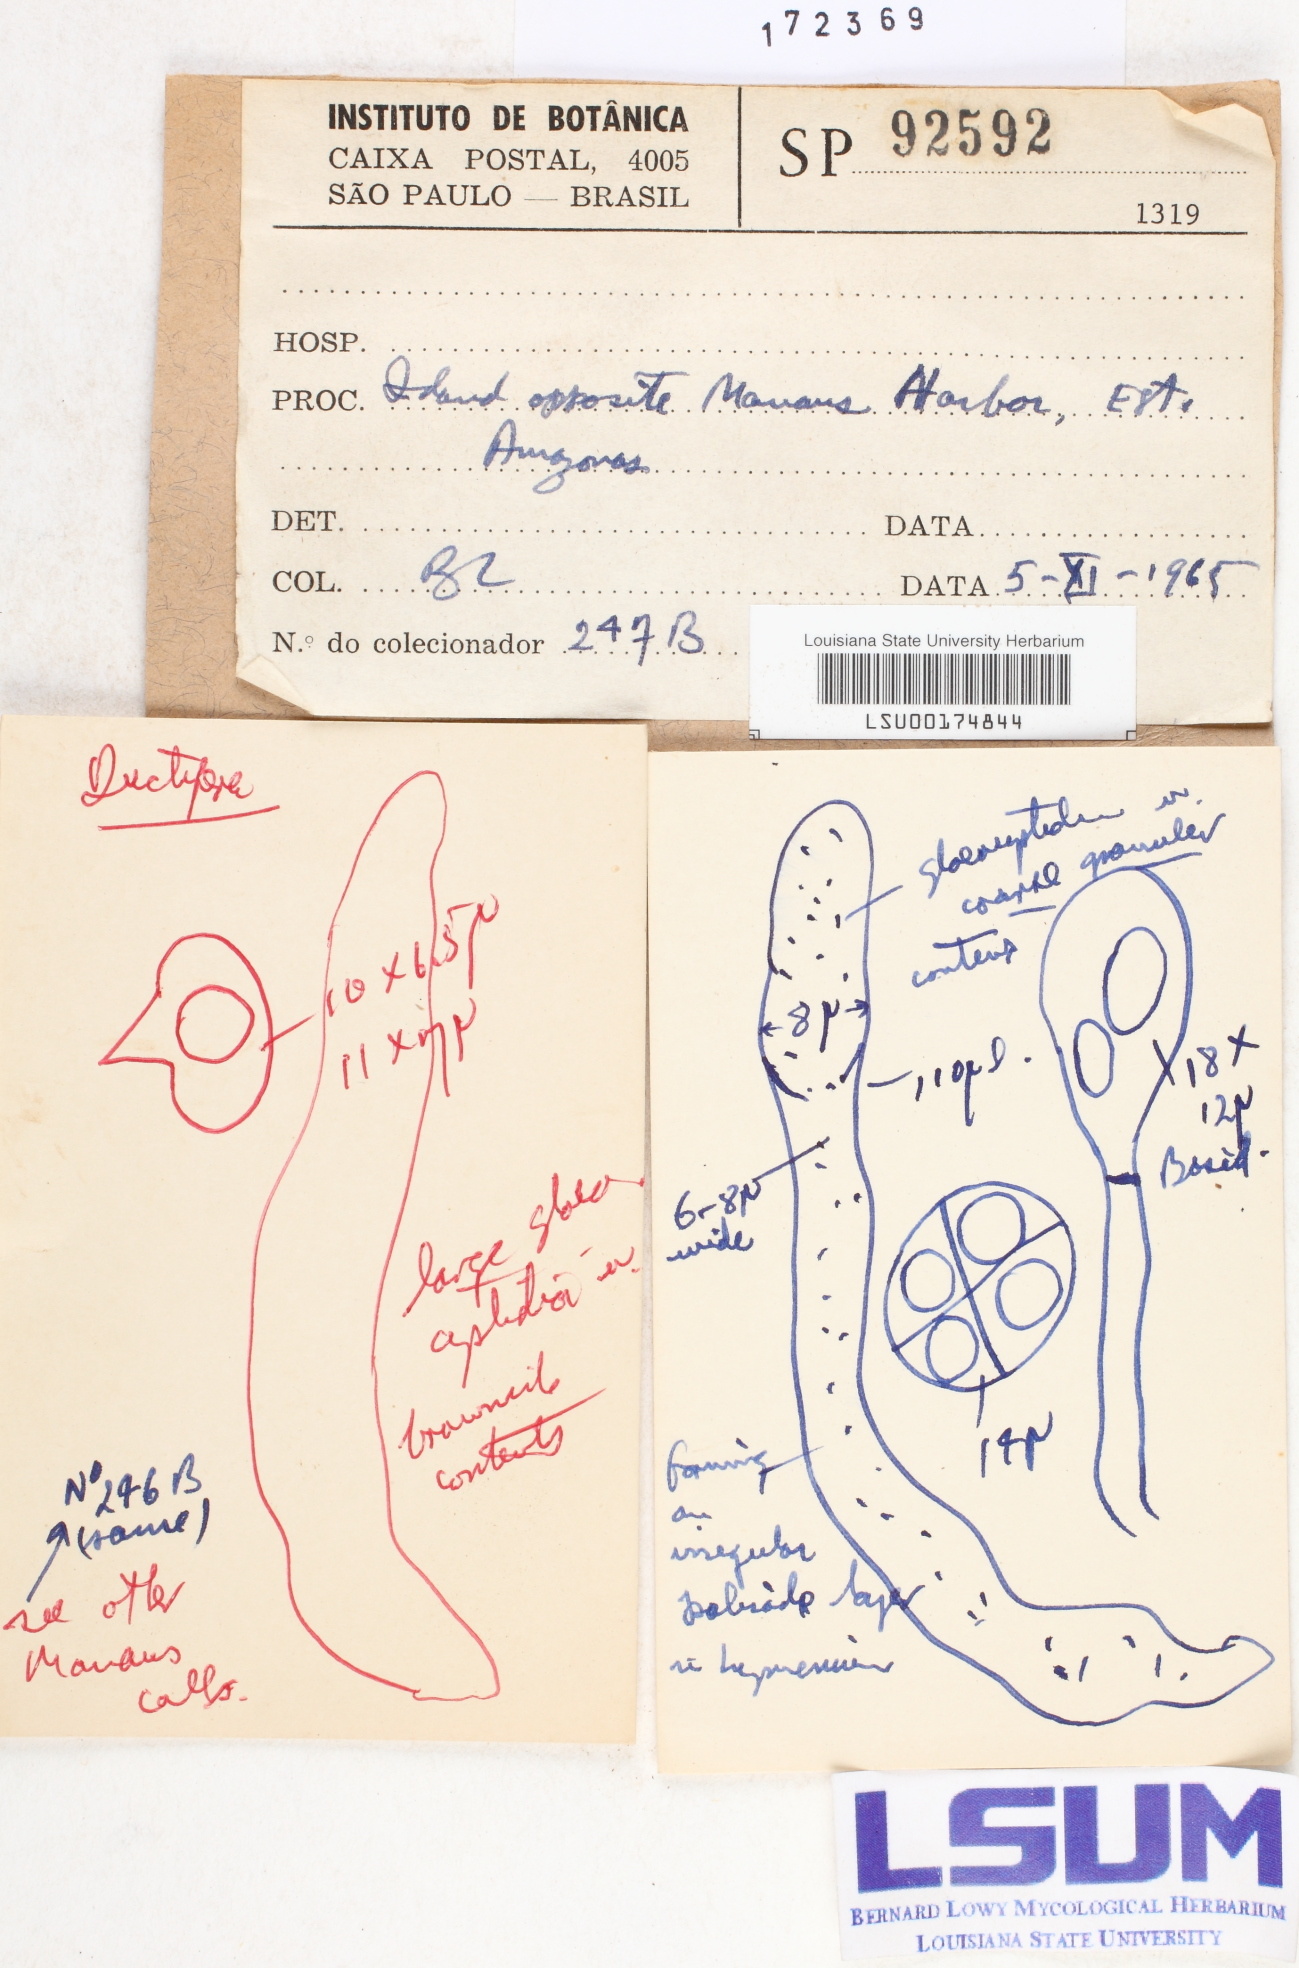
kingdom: Fungi
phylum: Basidiomycota
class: Agaricomycetes
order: Auriculariales
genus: Ductifera
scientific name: Ductifera
